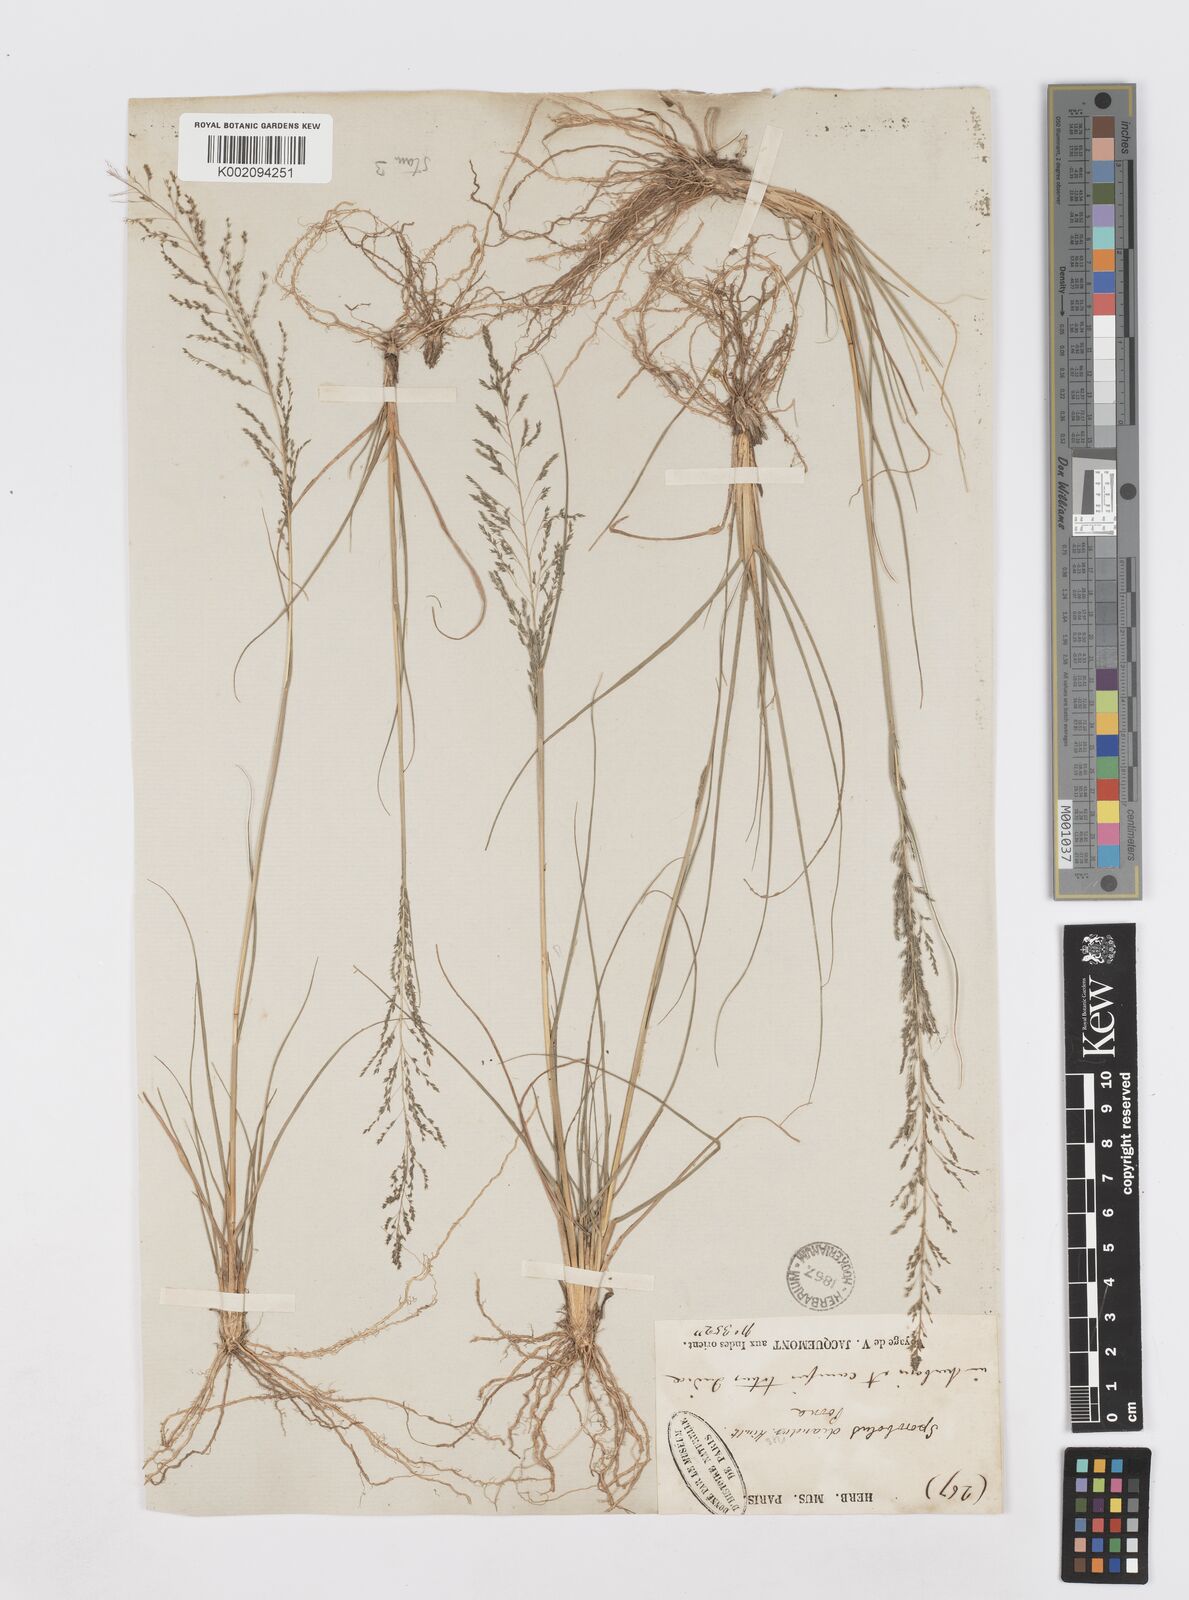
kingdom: Plantae
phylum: Tracheophyta
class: Liliopsida
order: Poales
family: Poaceae
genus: Sporobolus
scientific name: Sporobolus diandrus
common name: Tussock dropseed
